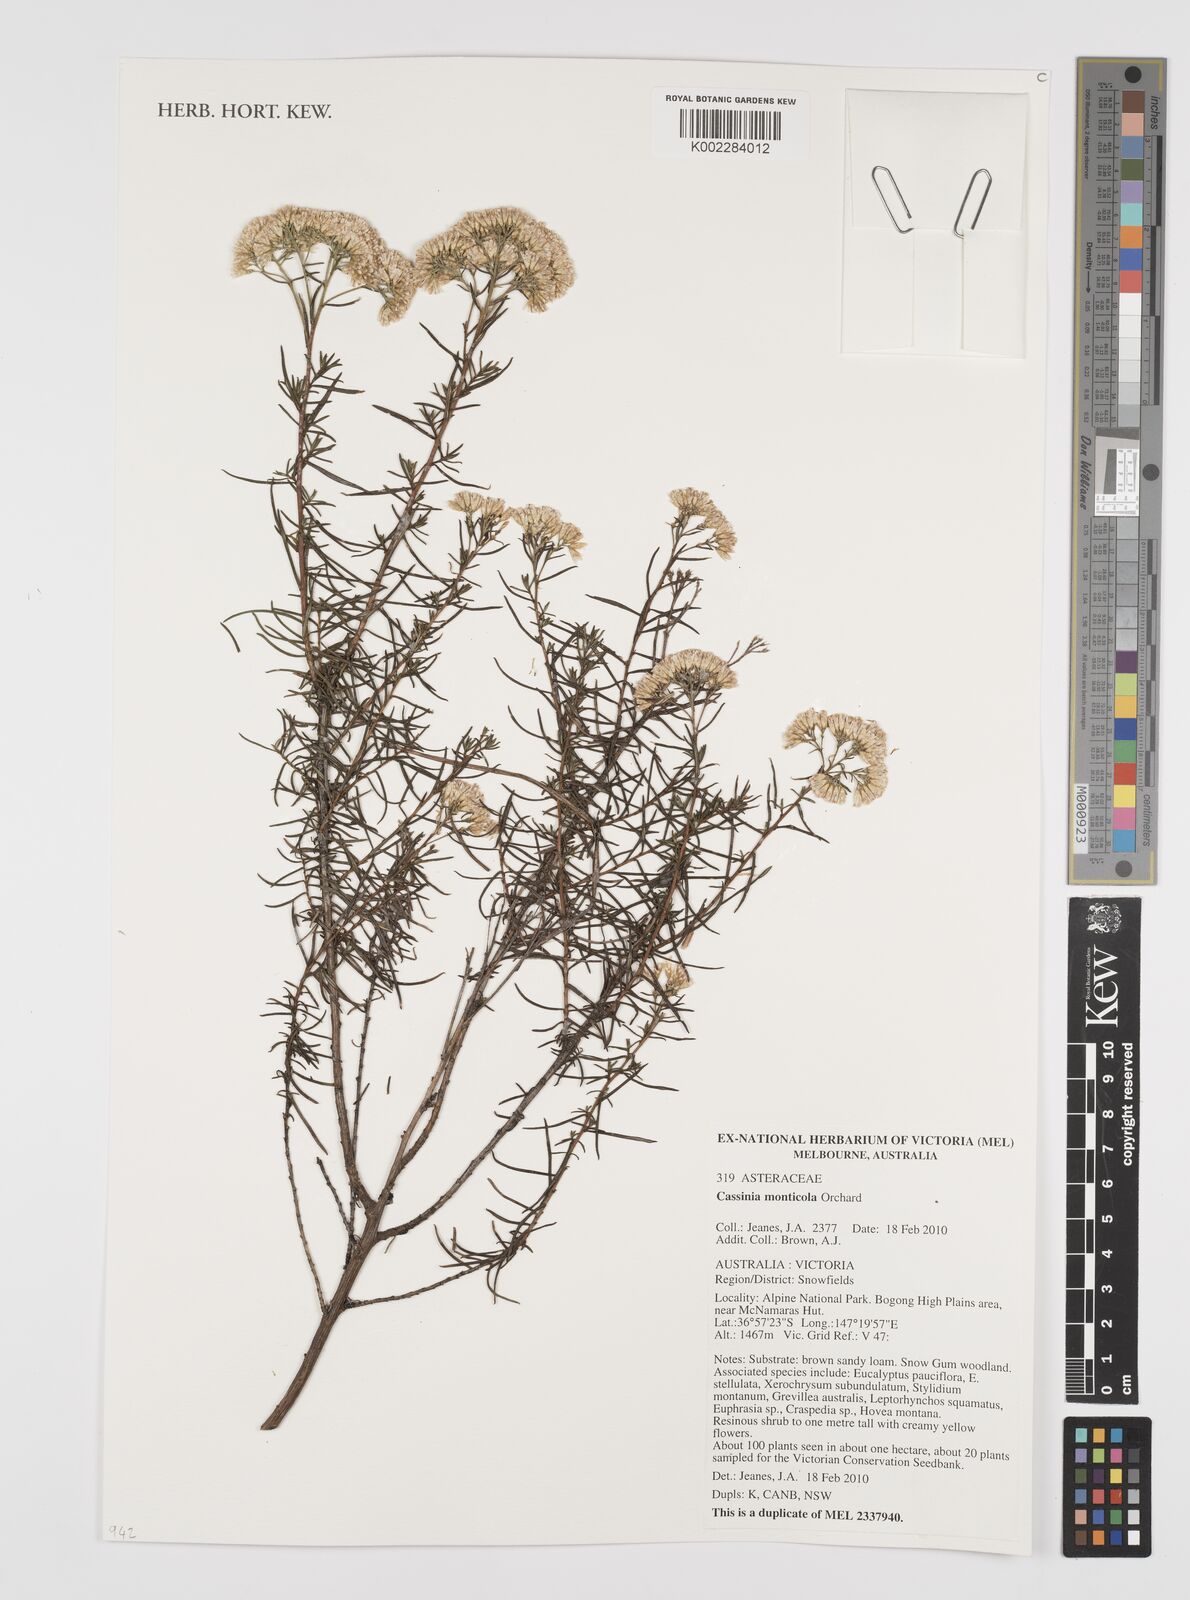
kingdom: Plantae
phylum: Tracheophyta
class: Magnoliopsida
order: Asterales
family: Asteraceae
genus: Cassinia
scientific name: Cassinia monticola
